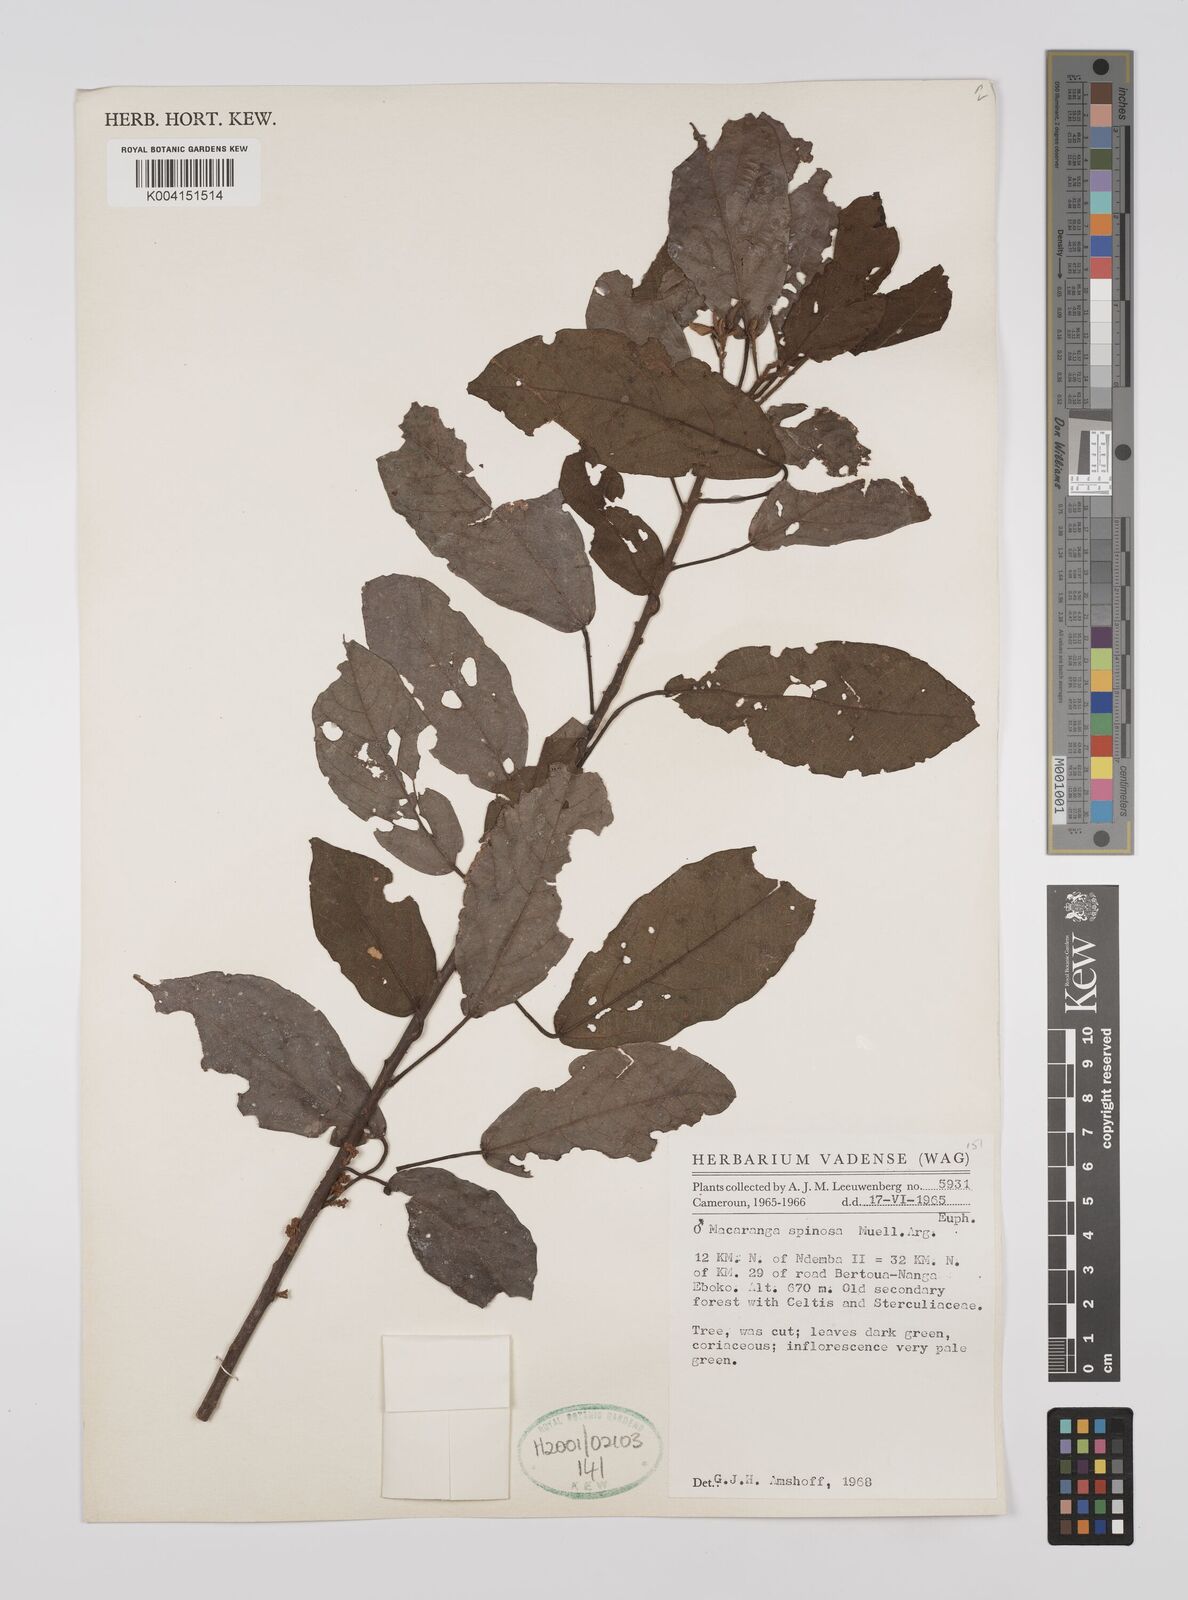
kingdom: Plantae
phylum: Tracheophyta
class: Magnoliopsida
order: Malpighiales
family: Euphorbiaceae
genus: Macaranga
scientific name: Macaranga spinosa
